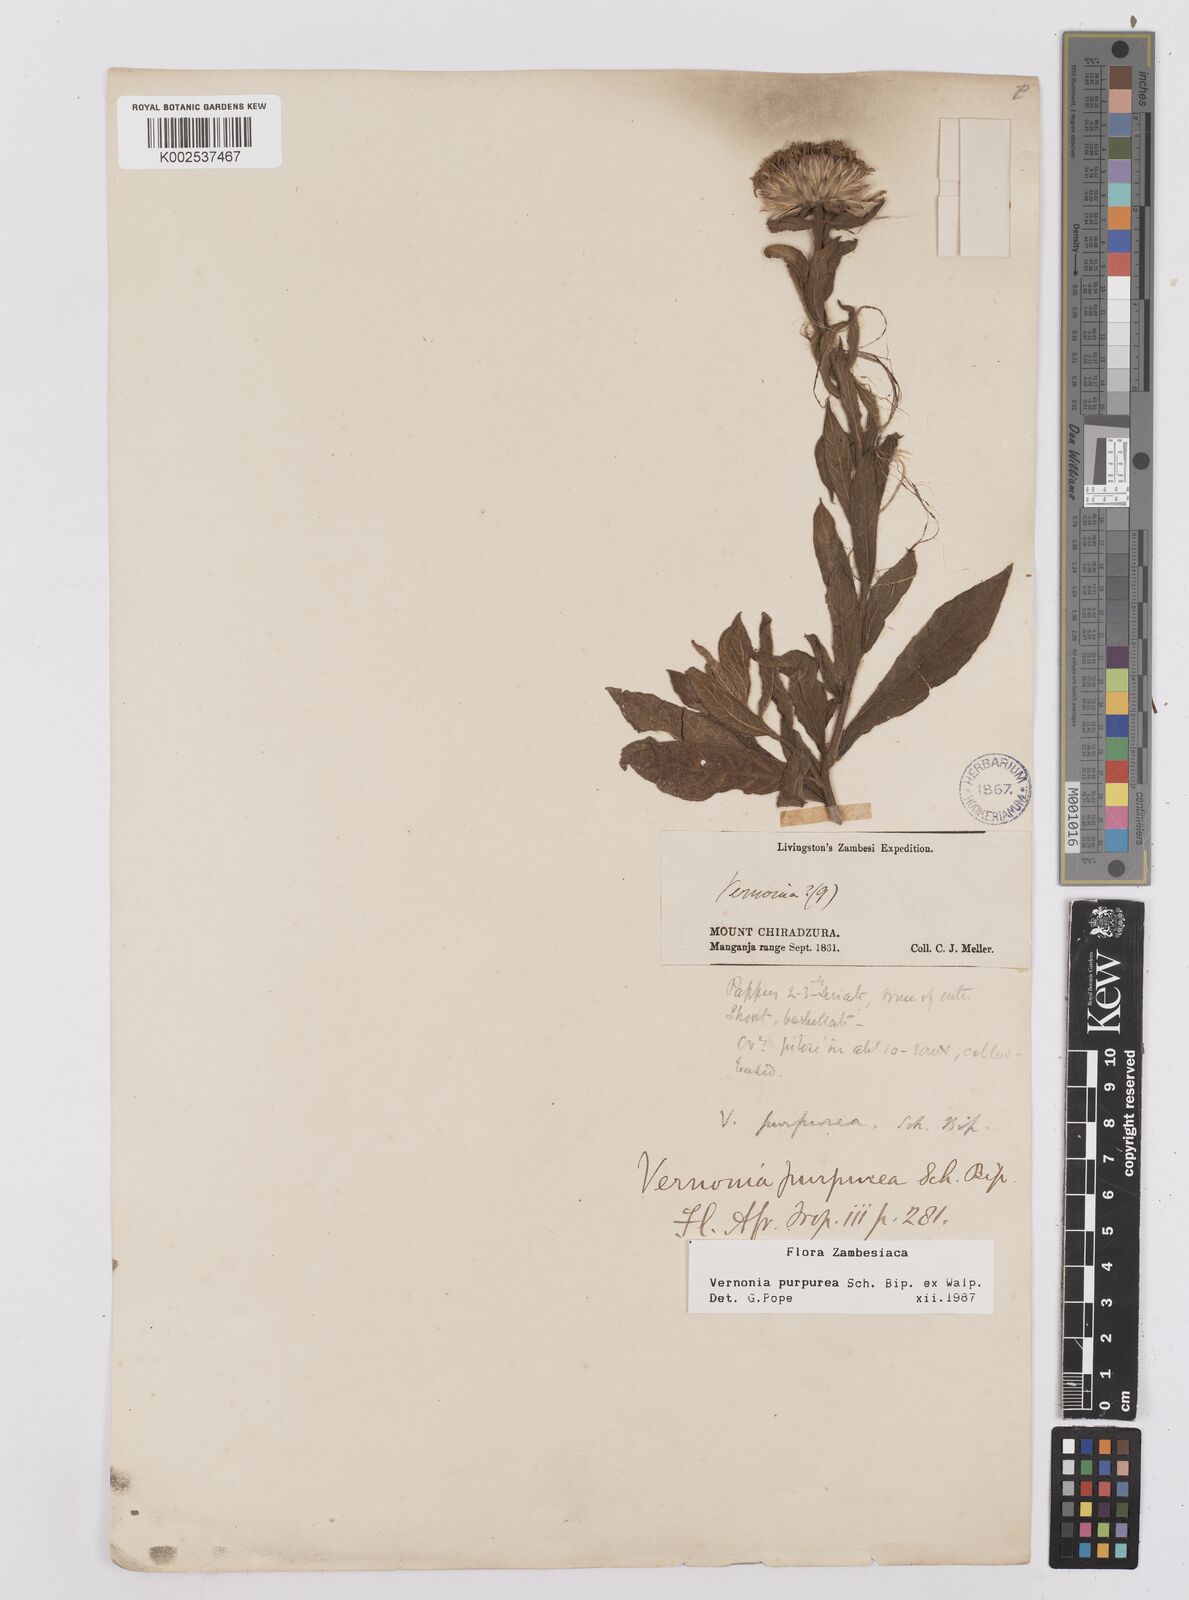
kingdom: Plantae
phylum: Tracheophyta
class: Magnoliopsida
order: Asterales
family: Asteraceae
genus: Nothovernonia
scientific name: Nothovernonia purpurea
